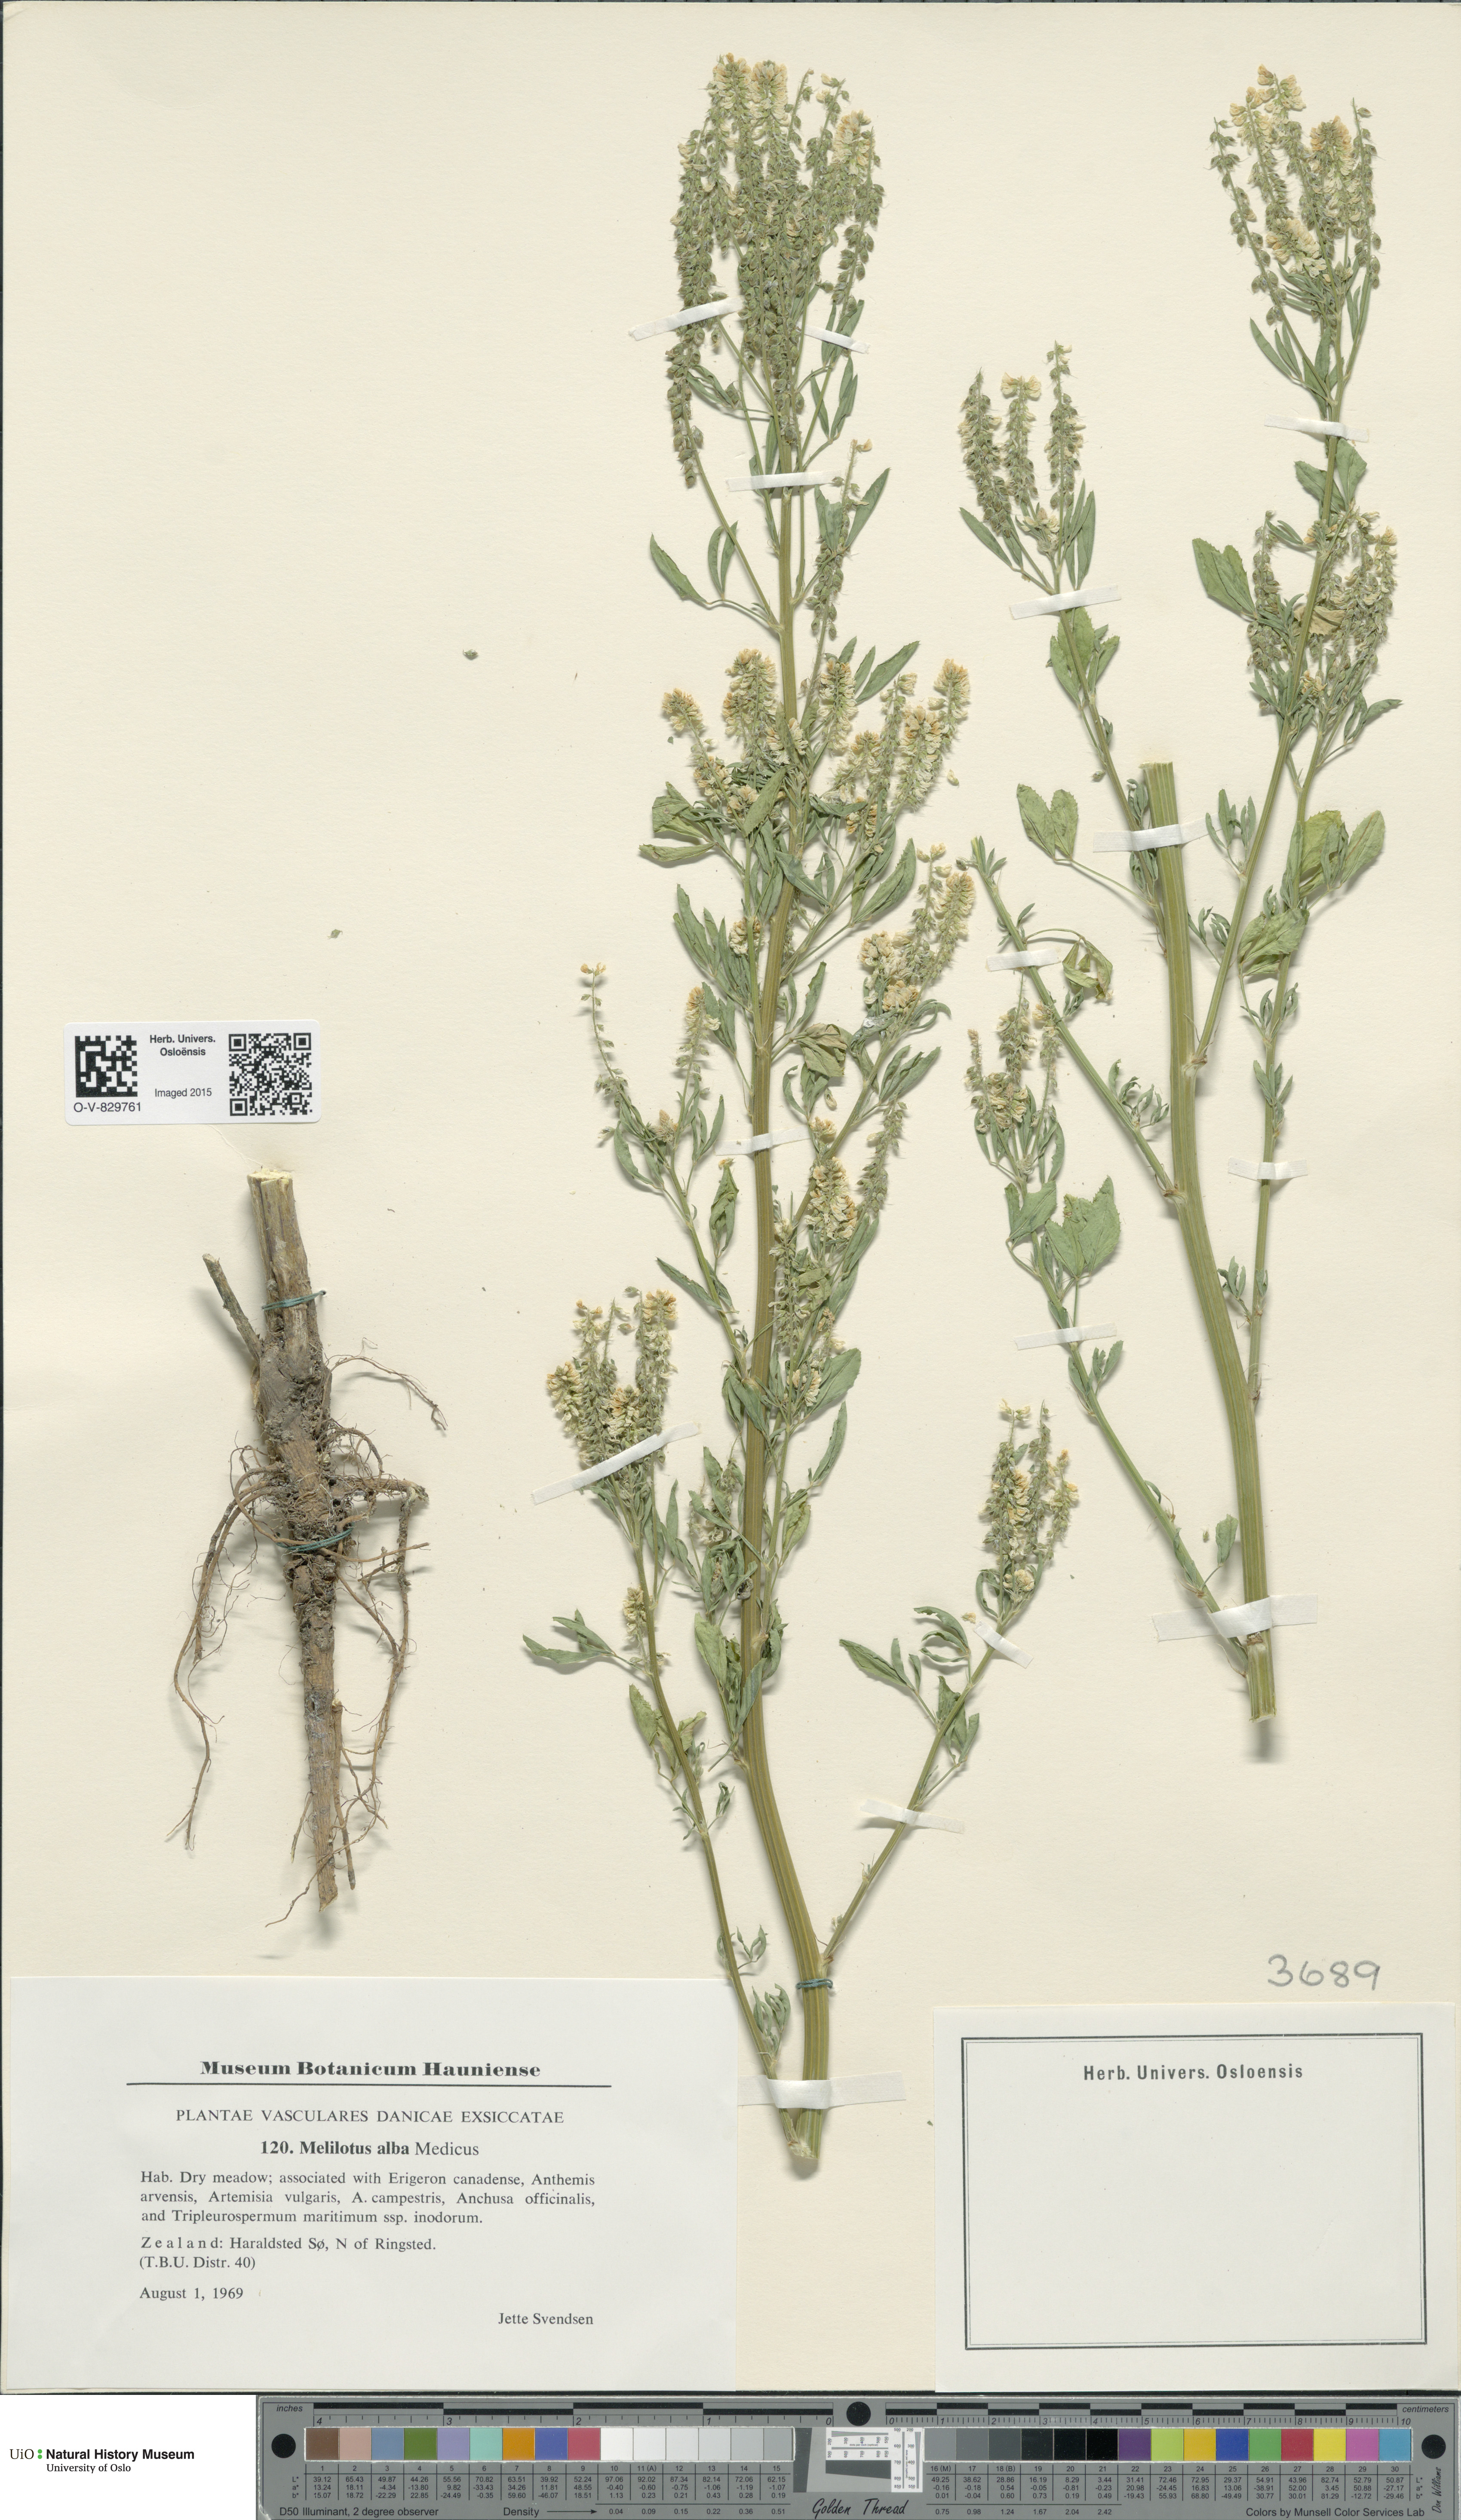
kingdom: Plantae
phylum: Tracheophyta
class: Magnoliopsida
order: Fabales
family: Fabaceae
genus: Melilotus
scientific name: Melilotus albus
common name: White melilot
